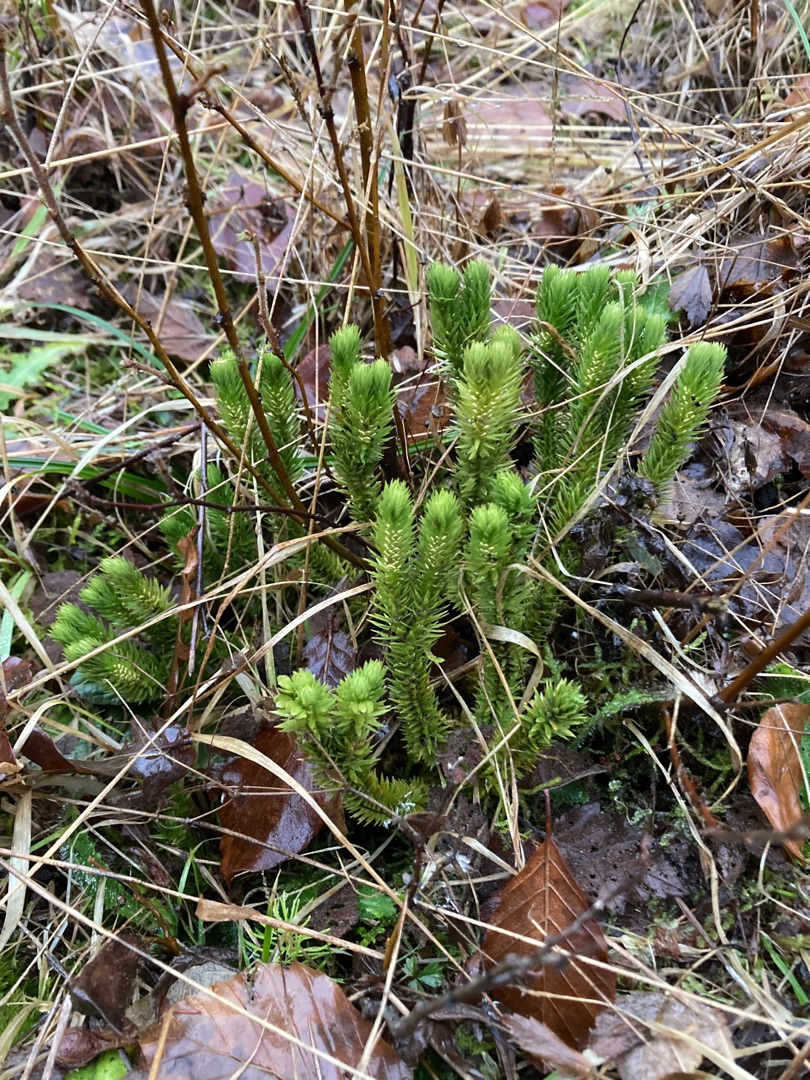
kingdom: Plantae
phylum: Tracheophyta
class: Lycopodiopsida
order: Lycopodiales
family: Lycopodiaceae
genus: Huperzia
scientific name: Huperzia selago
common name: Otteradet ulvefod
